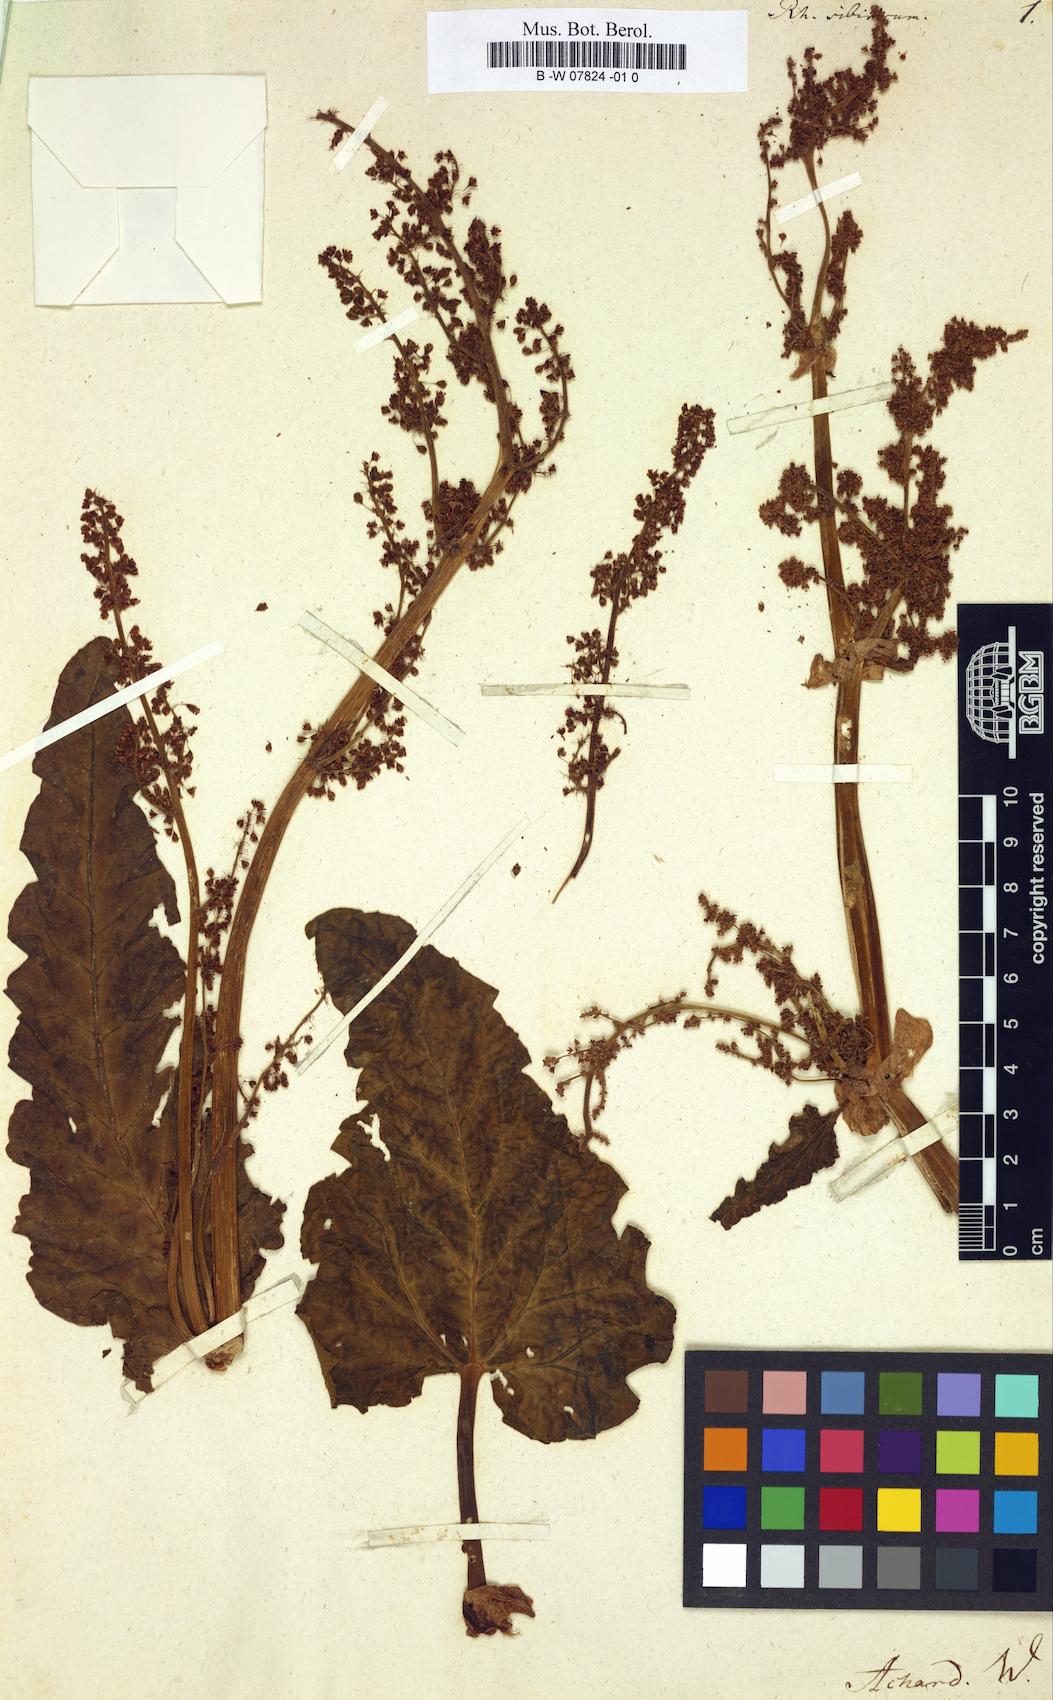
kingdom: Plantae
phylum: Tracheophyta
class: Magnoliopsida
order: Caryophyllales
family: Polygonaceae
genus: Rheum
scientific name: Rheum rhaponticum
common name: Rhubarb
